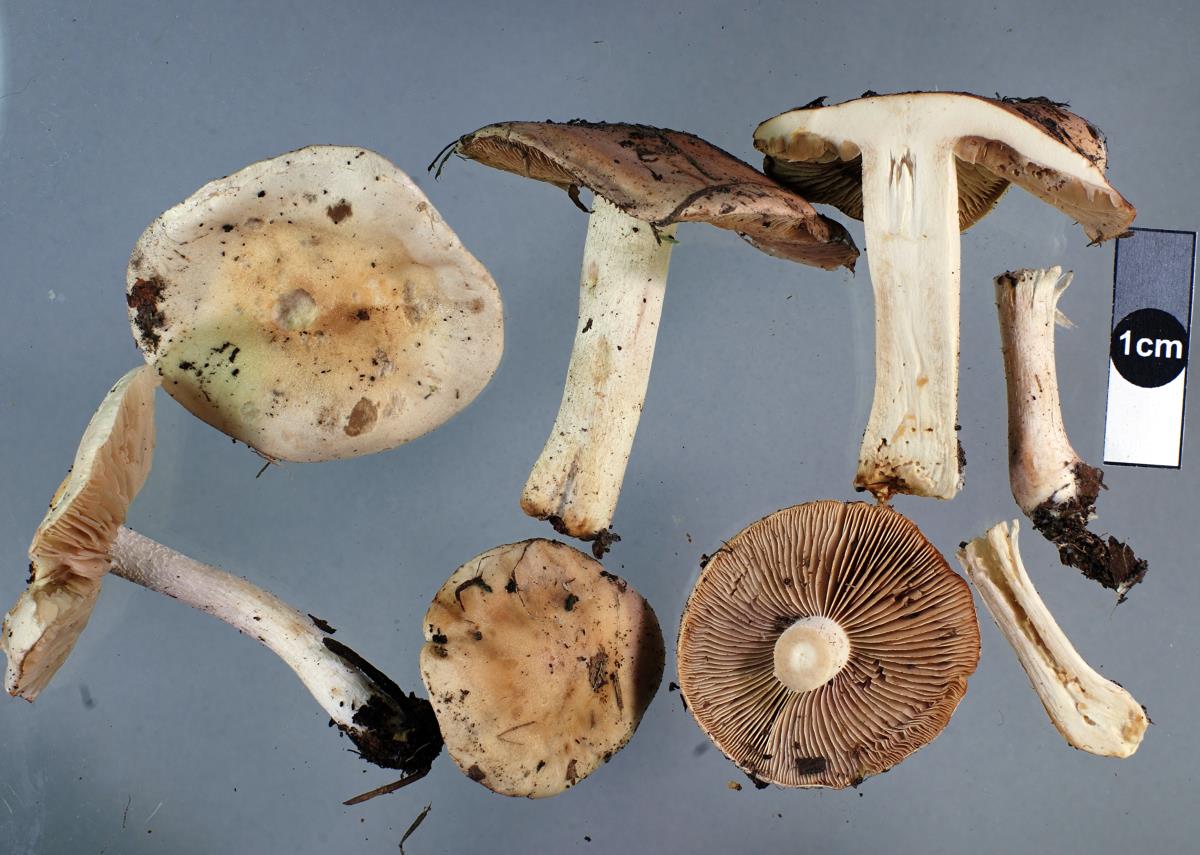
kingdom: Fungi
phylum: Basidiomycota
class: Agaricomycetes
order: Agaricales
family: Hymenogastraceae
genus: Hebeloma
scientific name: Hebeloma cavipes
